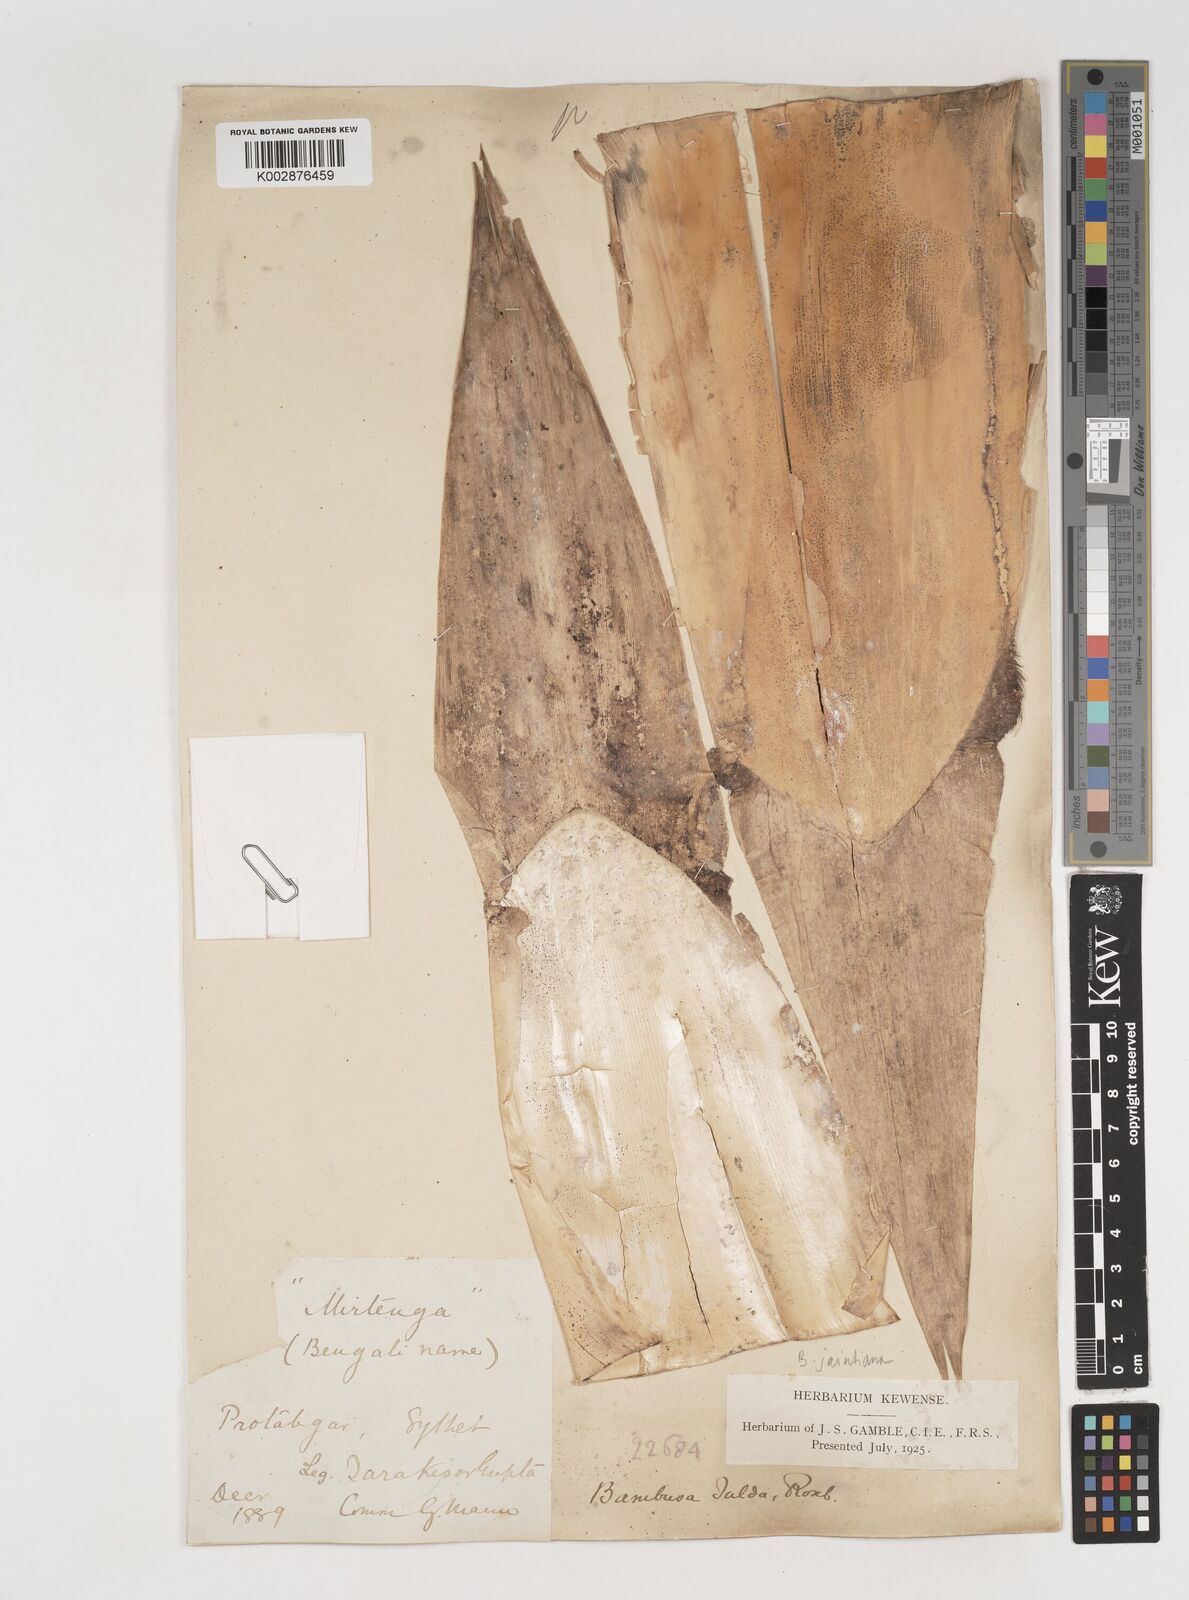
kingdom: Plantae
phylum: Tracheophyta
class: Liliopsida
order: Poales
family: Poaceae
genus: Bambusa
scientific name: Bambusa jaintiana
